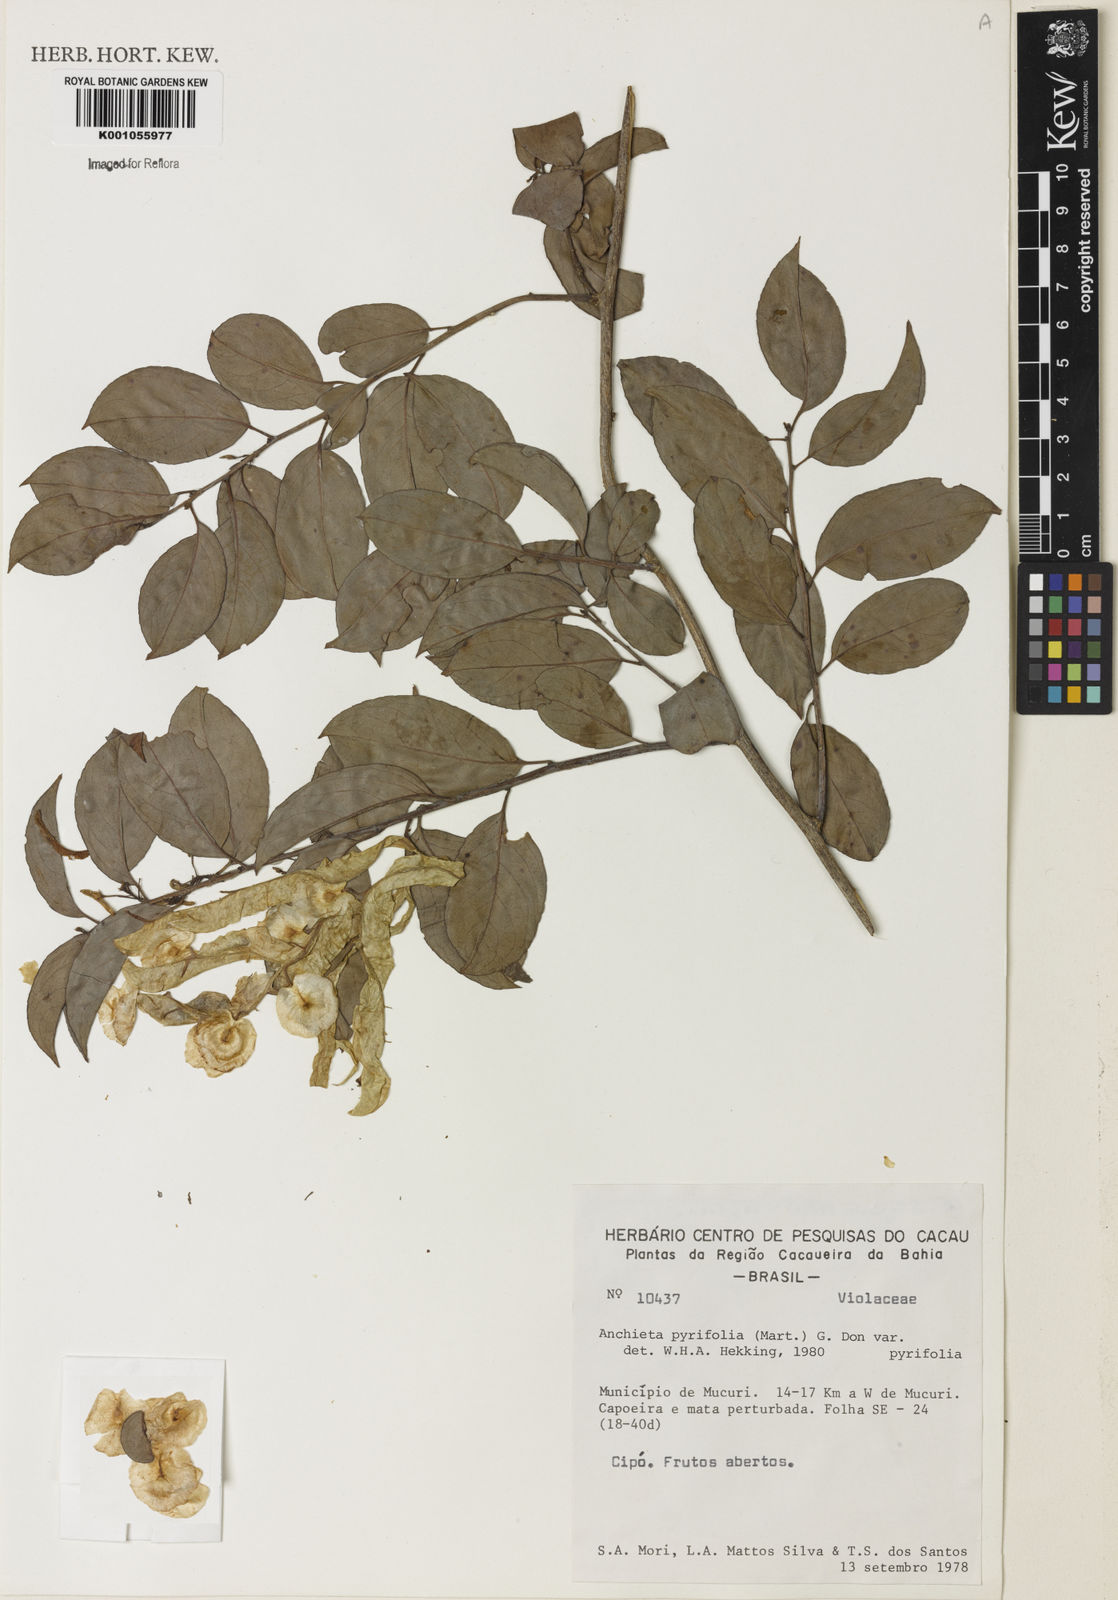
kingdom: Plantae
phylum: Tracheophyta
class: Magnoliopsida
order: Malpighiales
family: Violaceae
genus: Anchietea
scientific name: Anchietea pyrifolia
